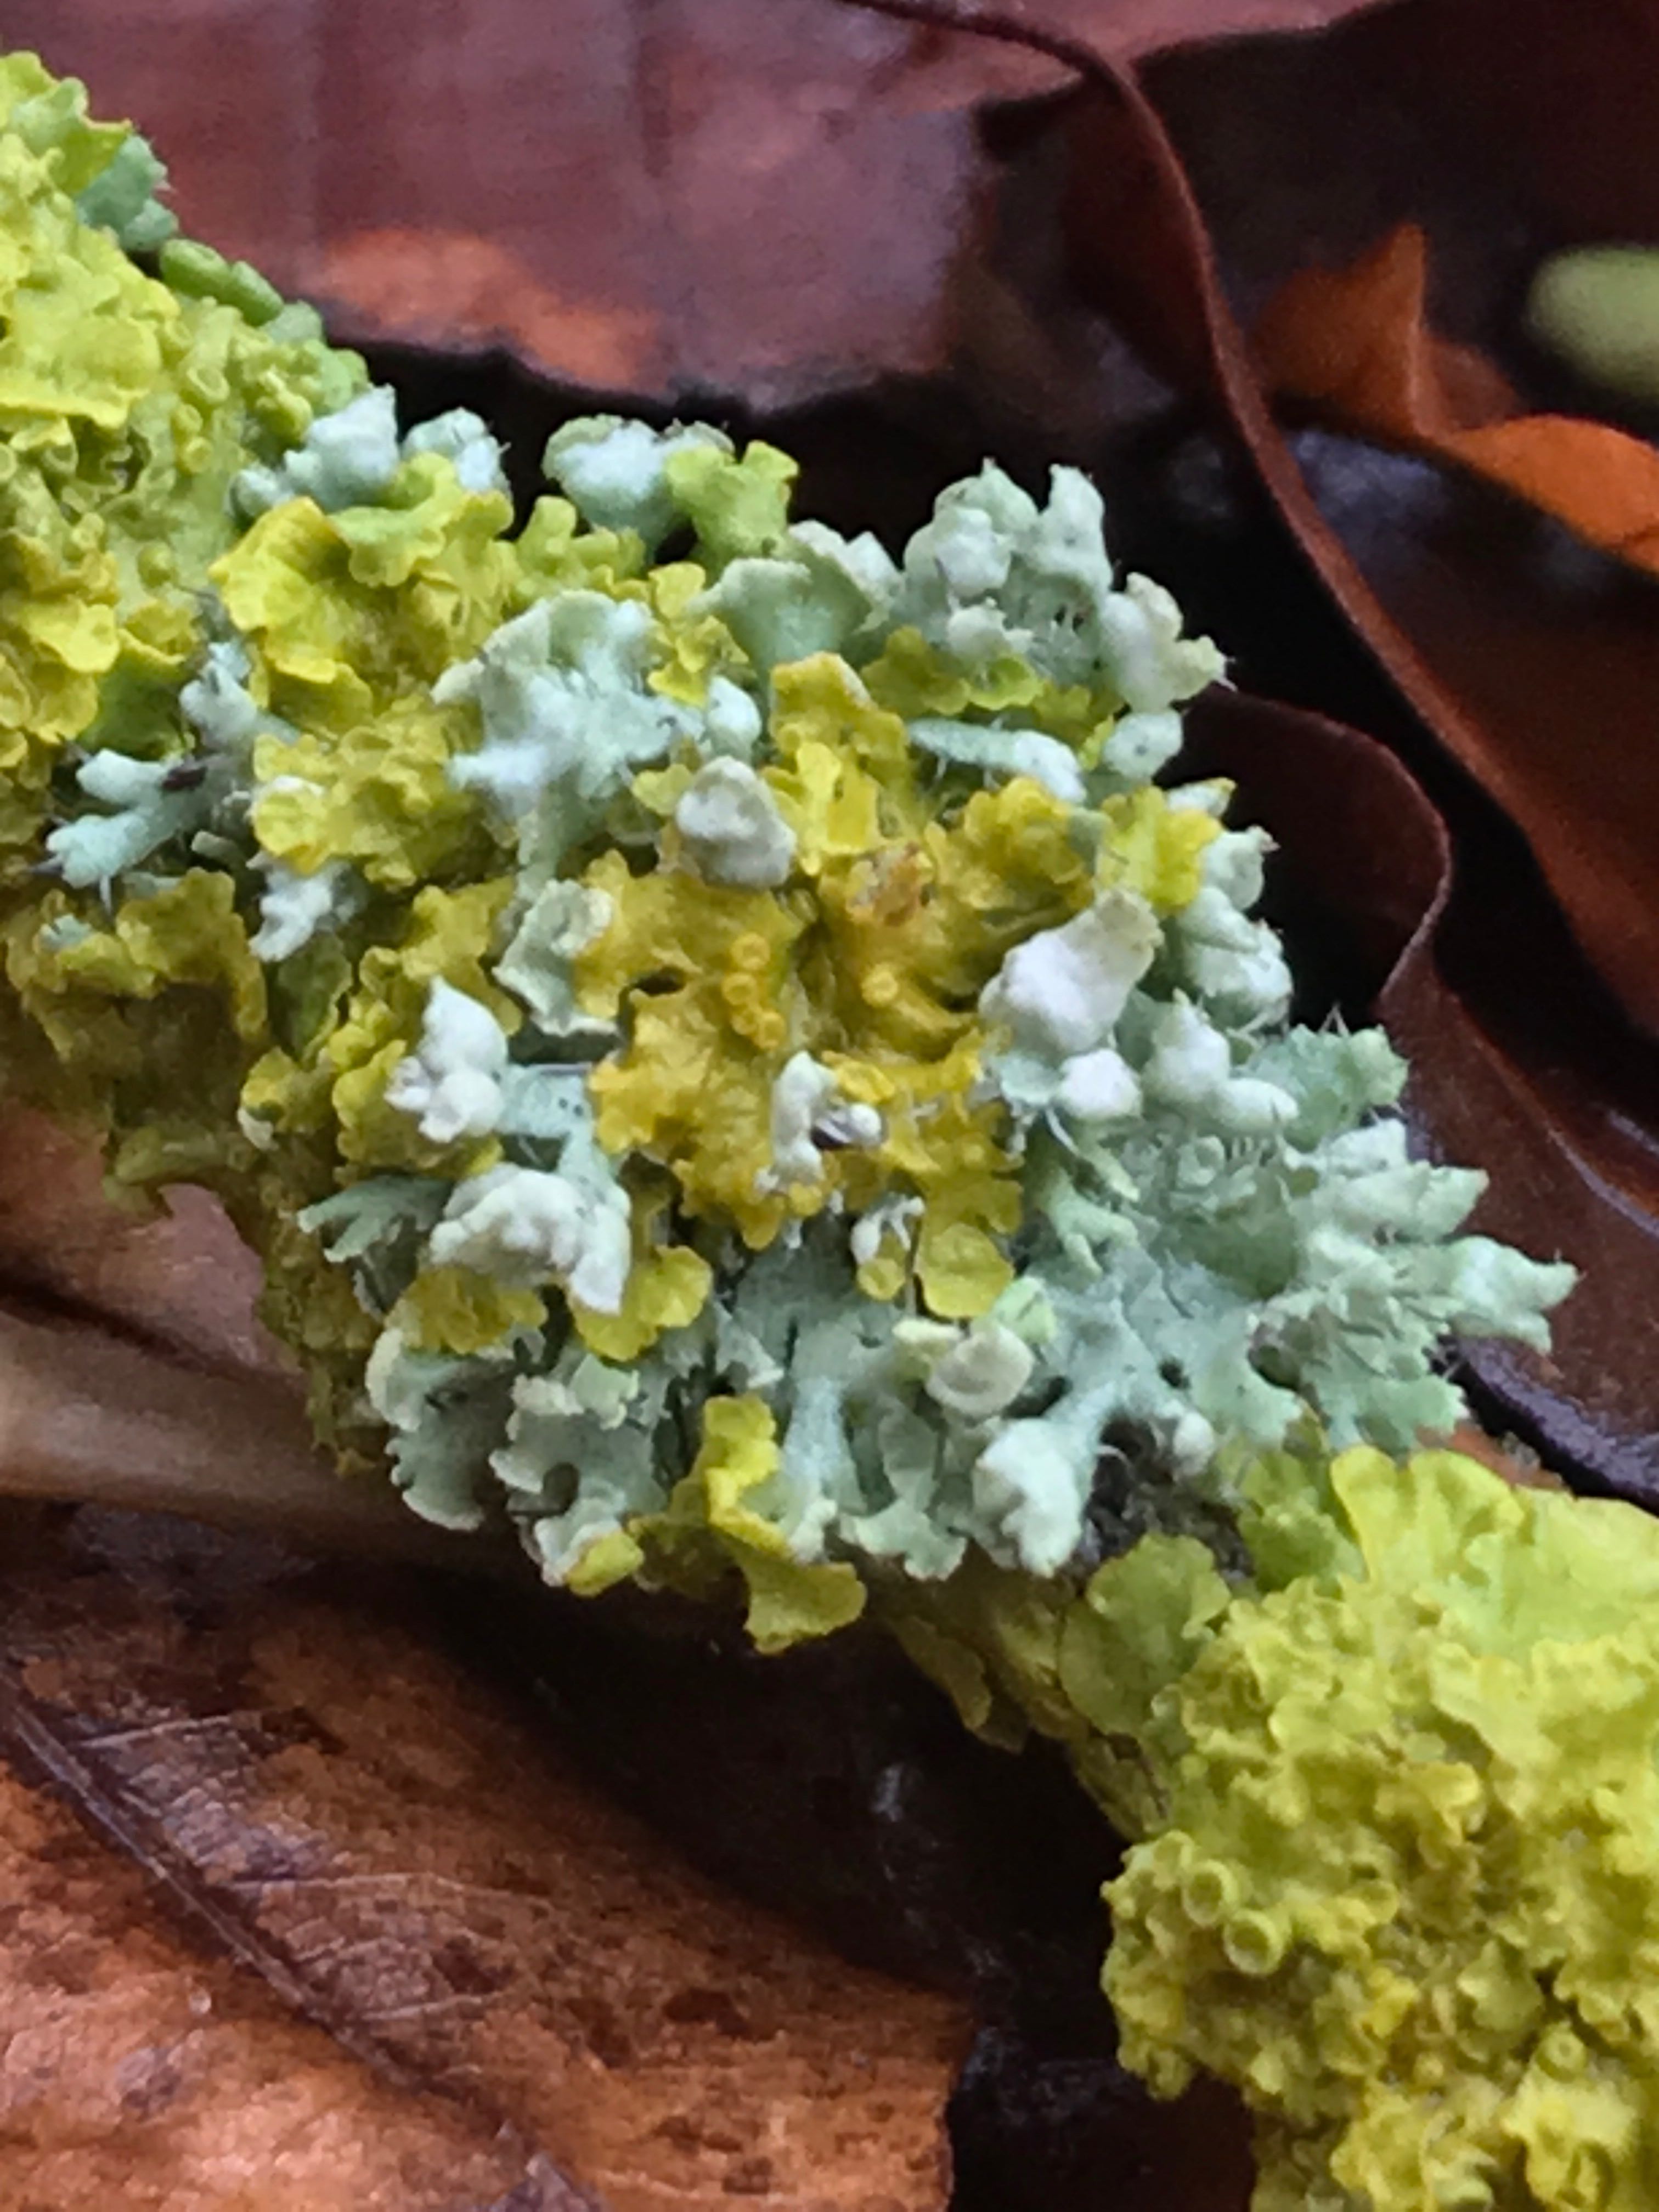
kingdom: Fungi
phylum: Ascomycota
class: Lecanoromycetes
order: Teloschistales
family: Teloschistaceae
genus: Xanthoria
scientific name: Xanthoria parietina
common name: almindelig væggelav
